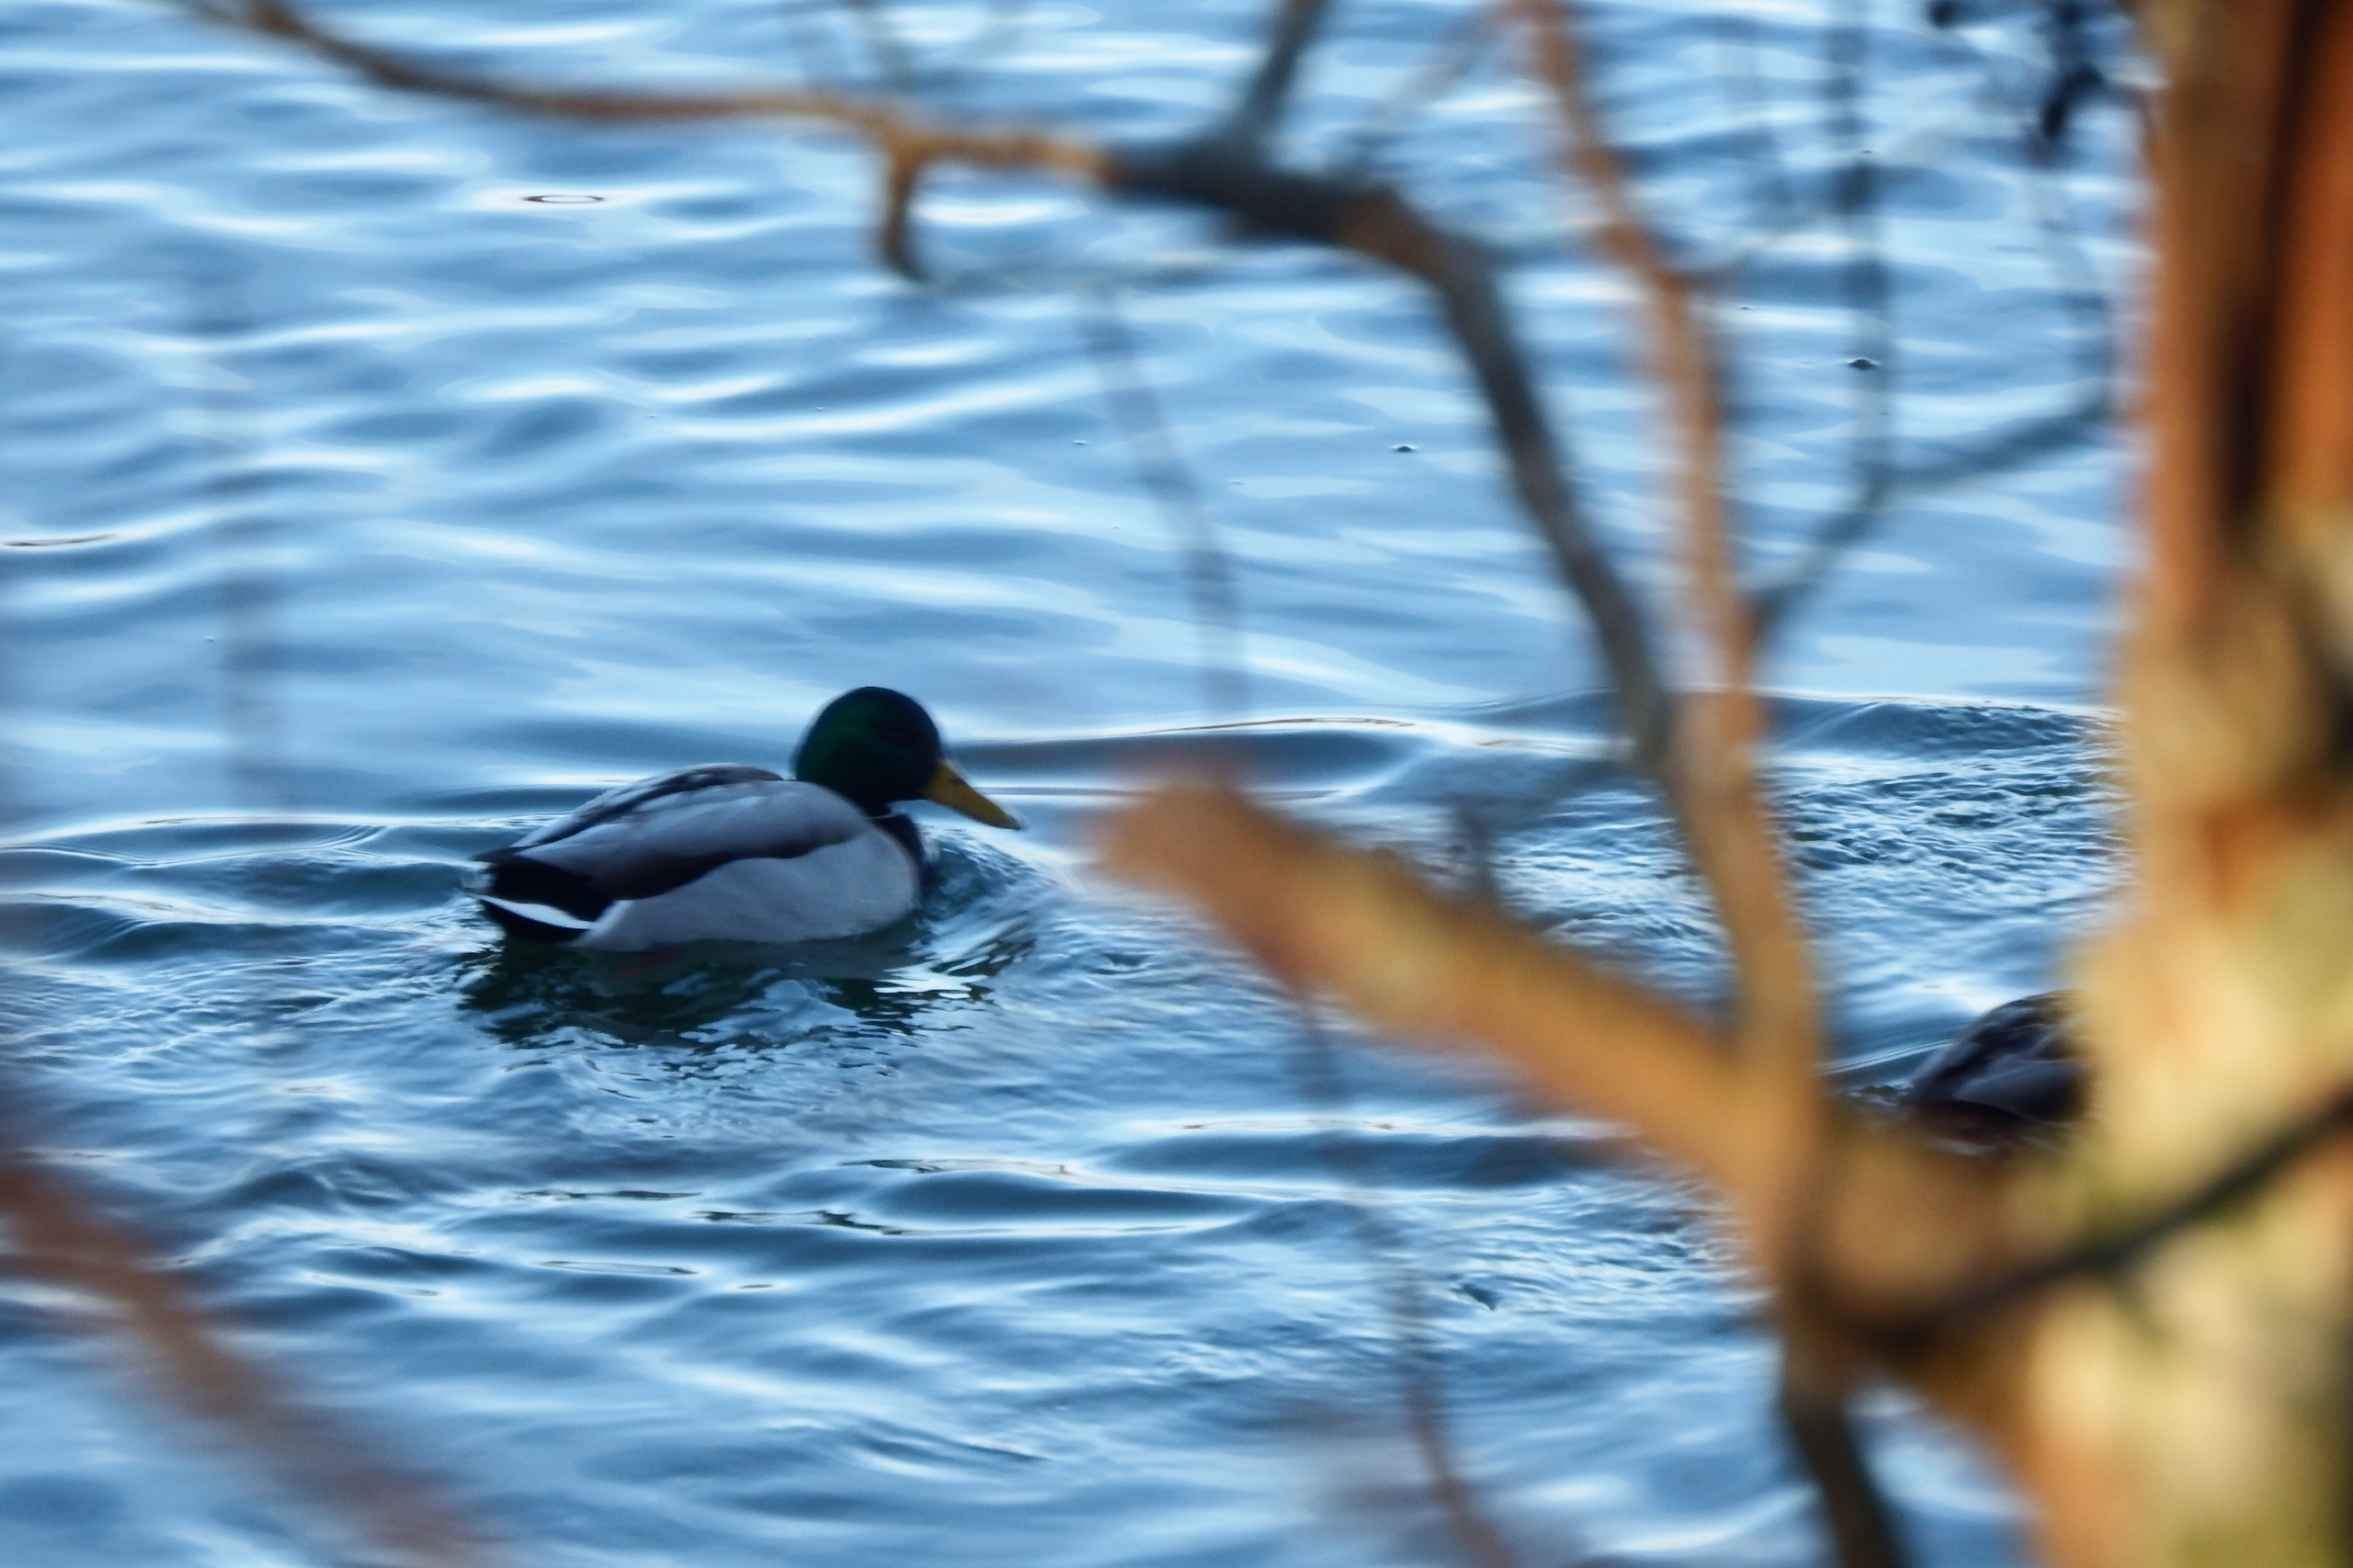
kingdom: Animalia
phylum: Chordata
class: Aves
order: Anseriformes
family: Anatidae
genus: Anas
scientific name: Anas platyrhynchos
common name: Gråand
